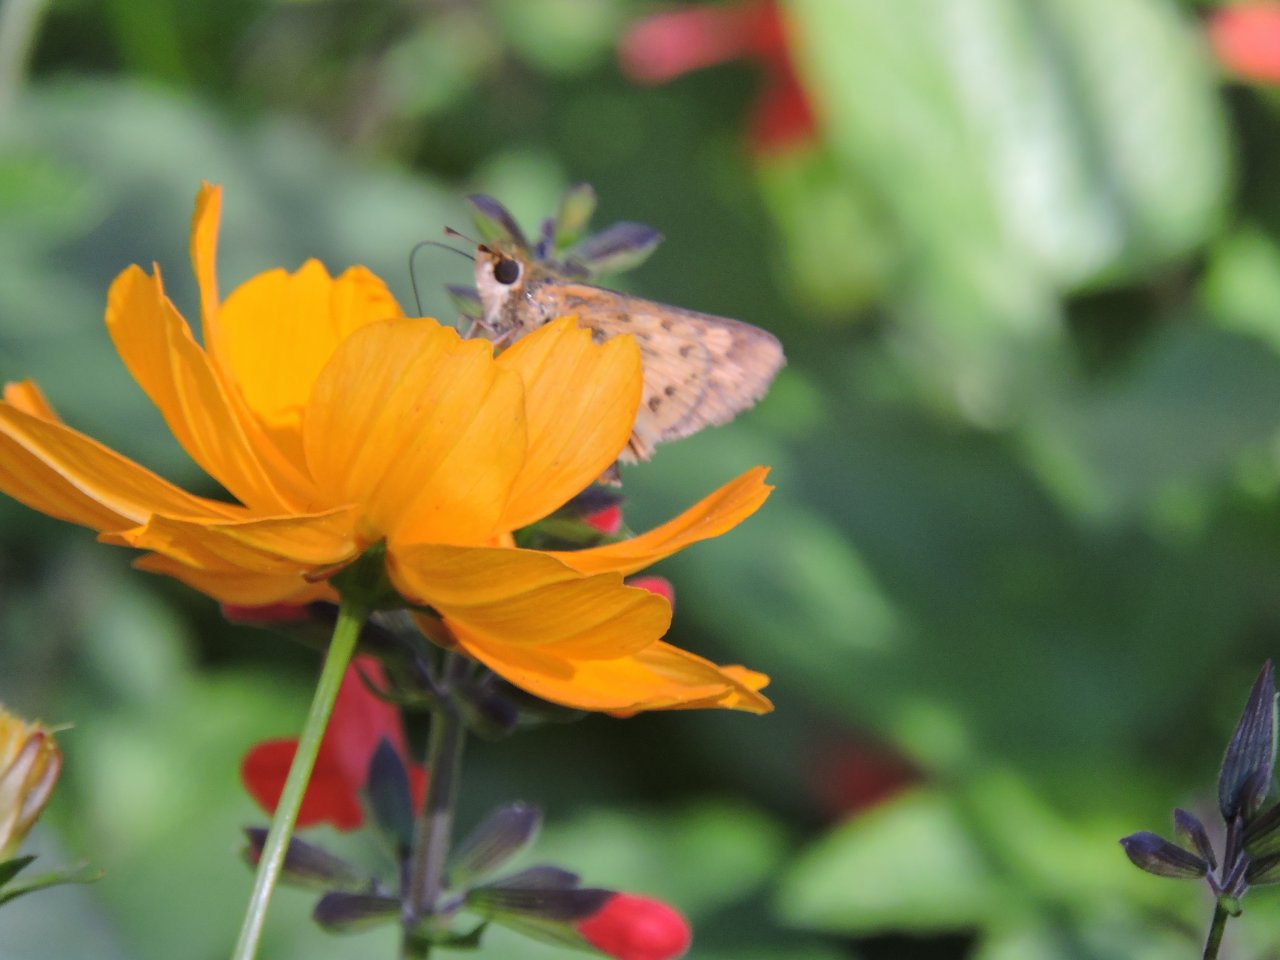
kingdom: Animalia
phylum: Arthropoda
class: Insecta
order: Lepidoptera
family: Hesperiidae
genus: Hylephila
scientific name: Hylephila phyleus
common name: Fiery Skipper
